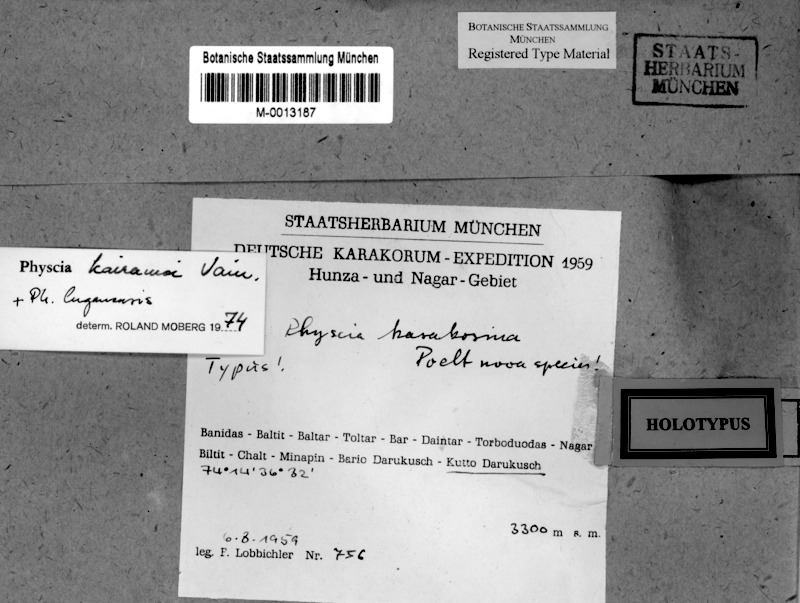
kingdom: Fungi
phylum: Ascomycota
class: Lecanoromycetes
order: Caliciales
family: Physciaceae
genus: Phaeophyscia
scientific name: Phaeophyscia kairamoi
